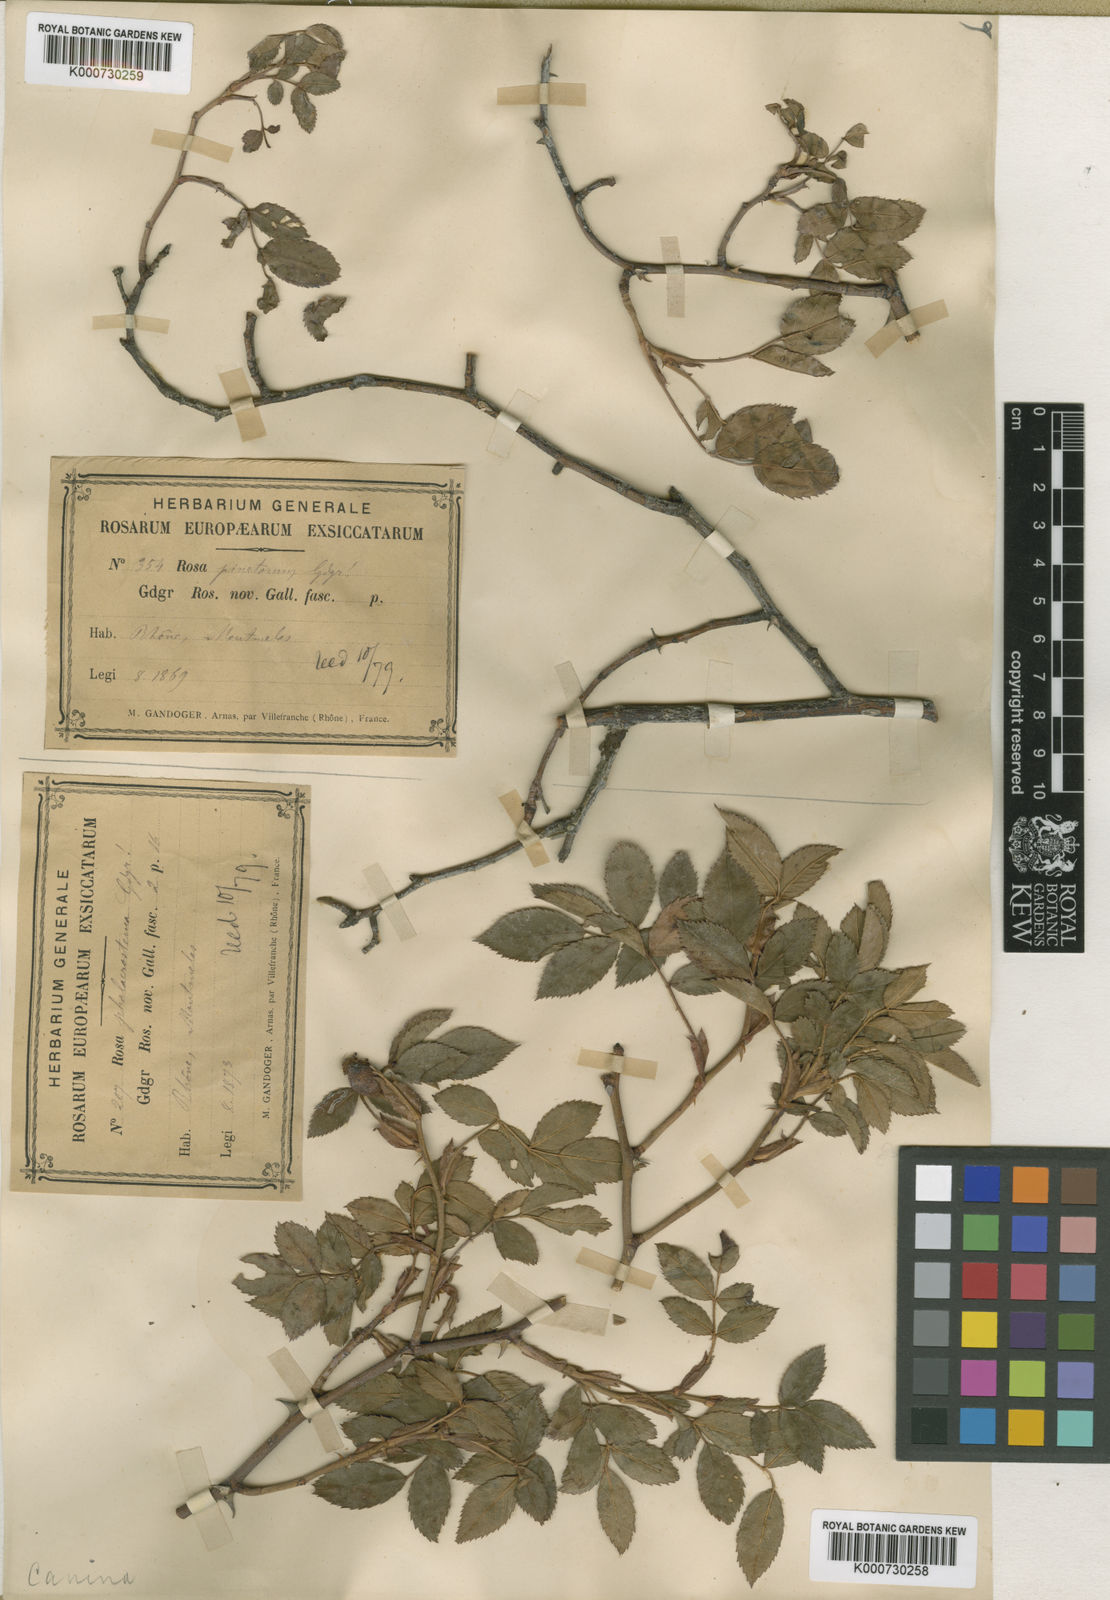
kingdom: Plantae
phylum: Tracheophyta
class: Magnoliopsida
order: Rosales
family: Rosaceae
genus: Rosa
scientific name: Rosa canina
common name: Dog rose
